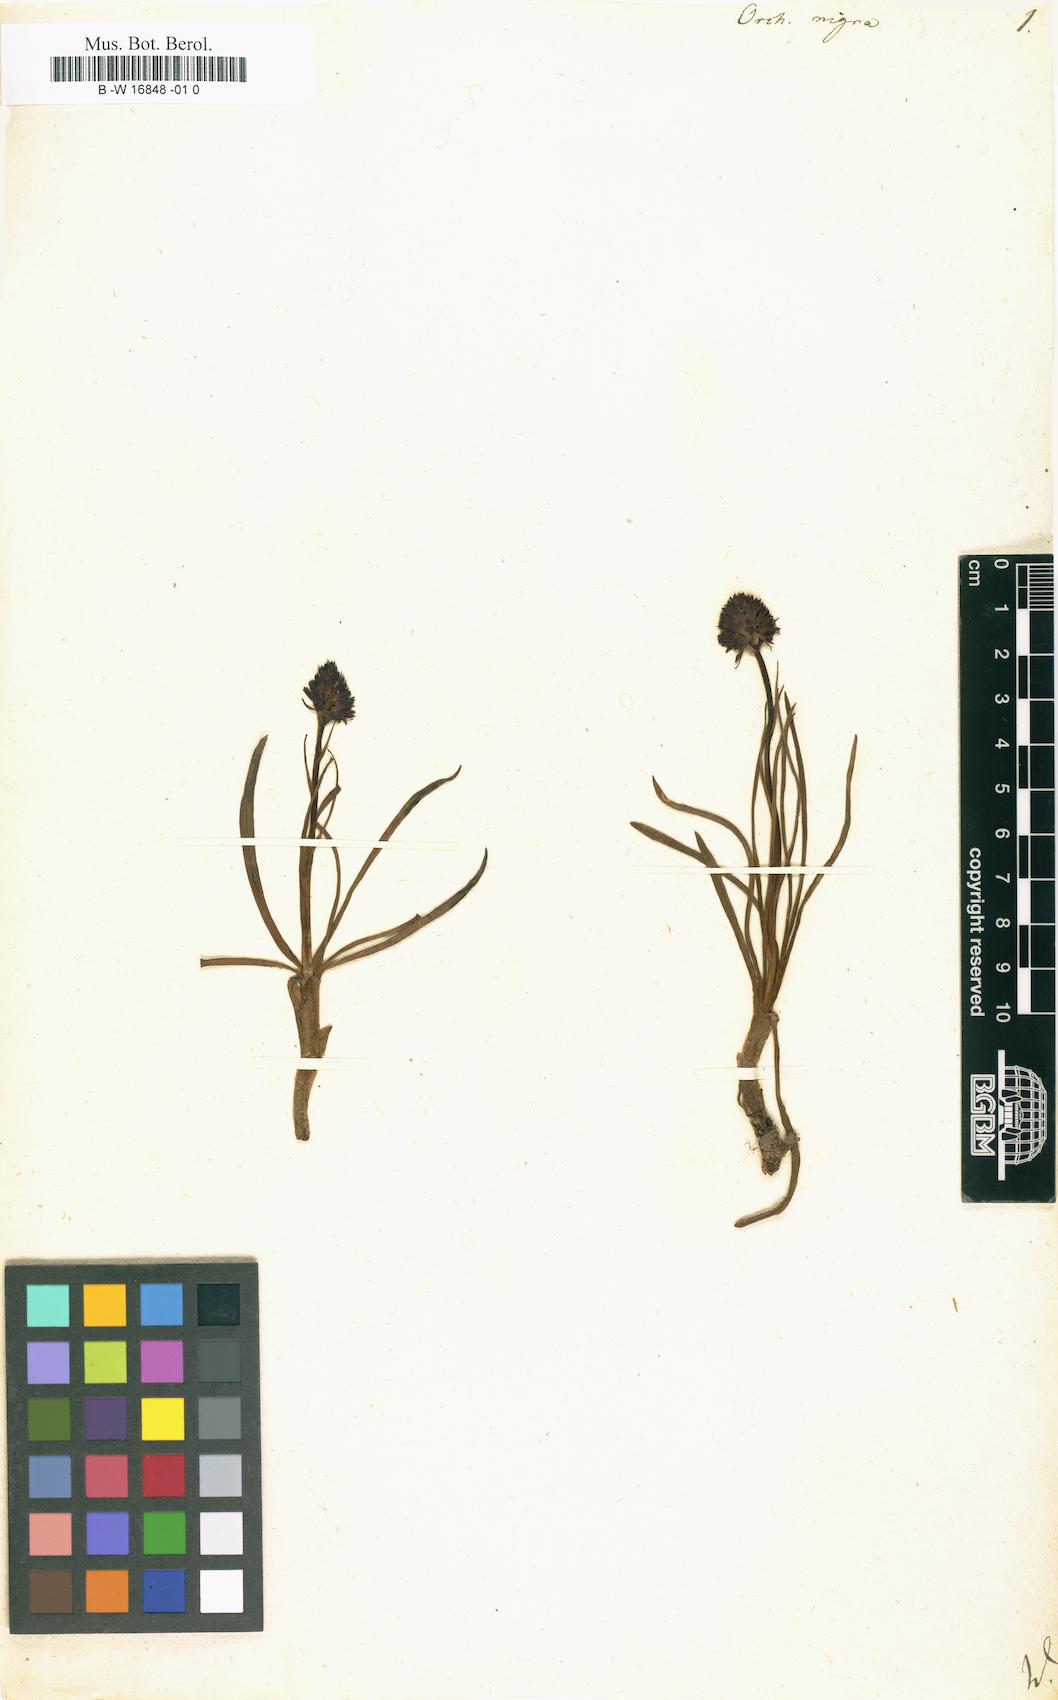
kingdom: Plantae
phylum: Tracheophyta
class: Liliopsida
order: Asparagales
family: Orchidaceae
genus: Gymnadenia
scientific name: Gymnadenia nigra
